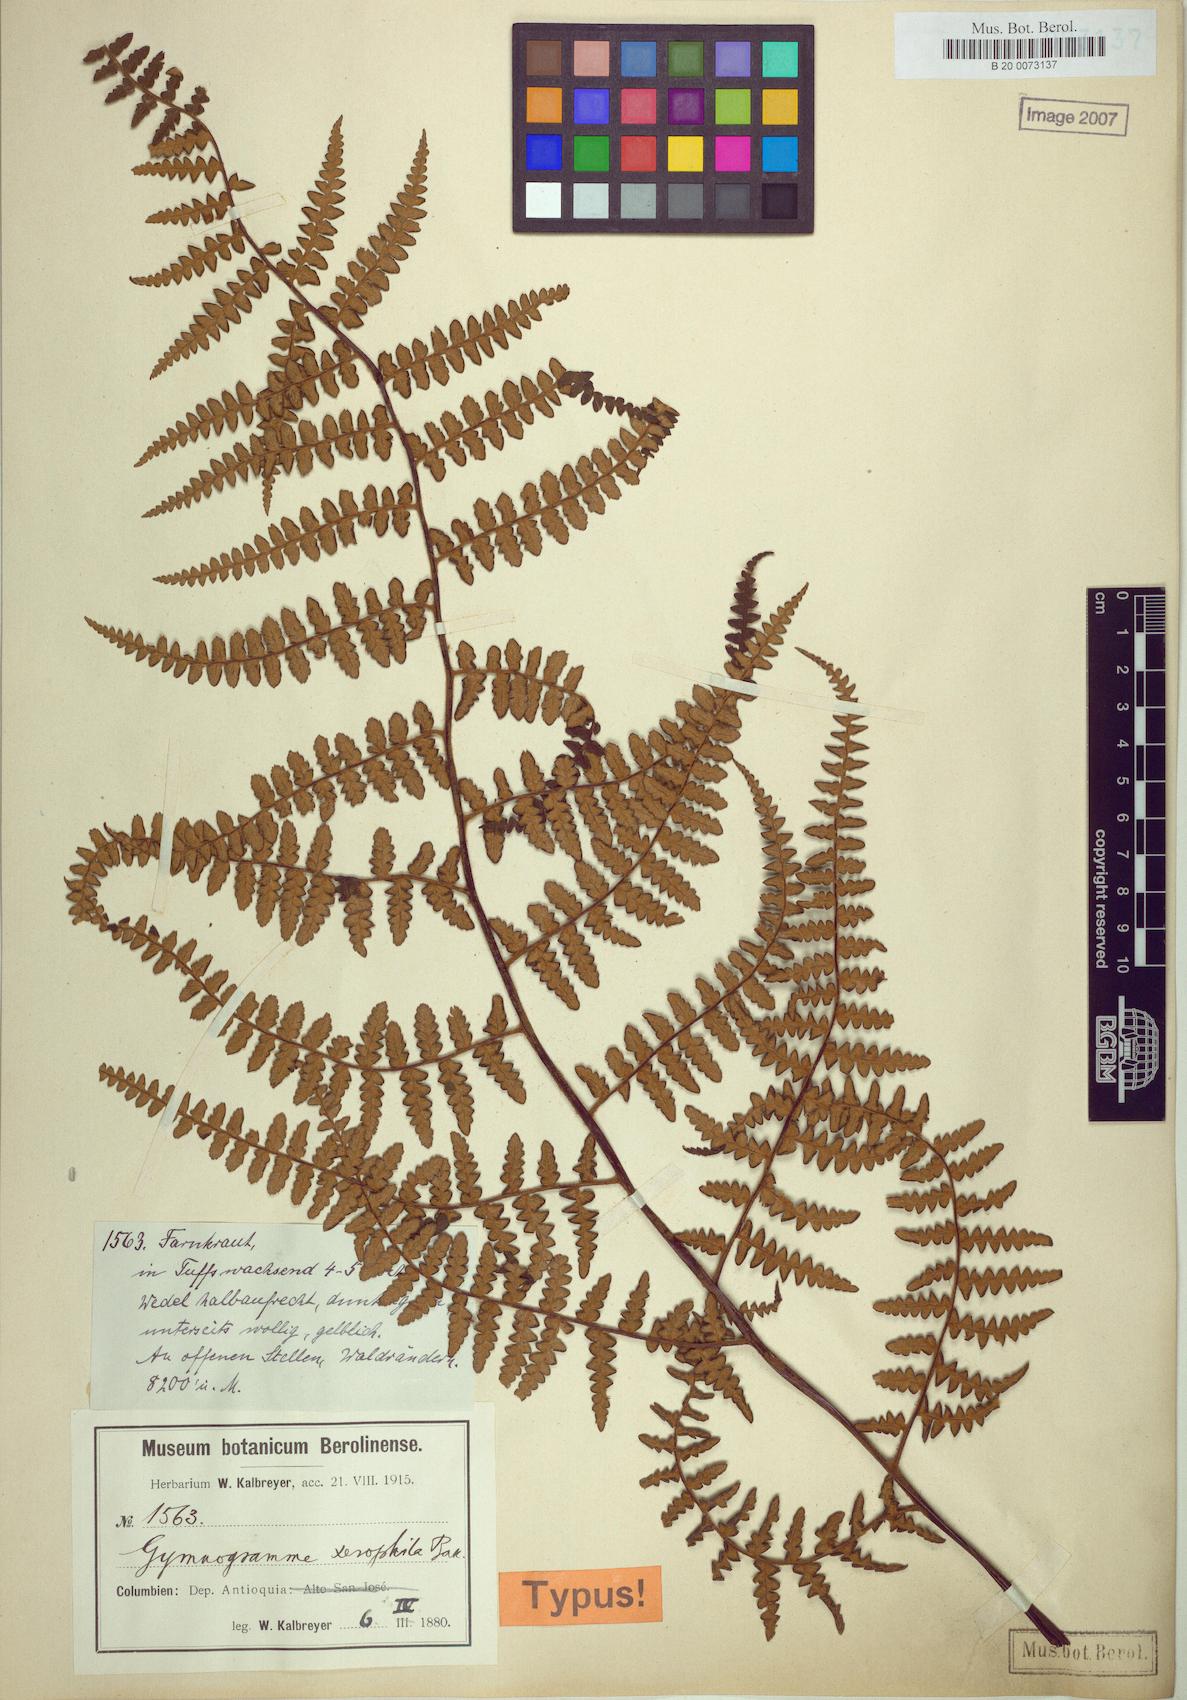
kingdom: Plantae
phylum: Tracheophyta
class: Polypodiopsida
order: Polypodiales
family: Pteridaceae
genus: Pityrogramma
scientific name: Pityrogramma jamesonii
